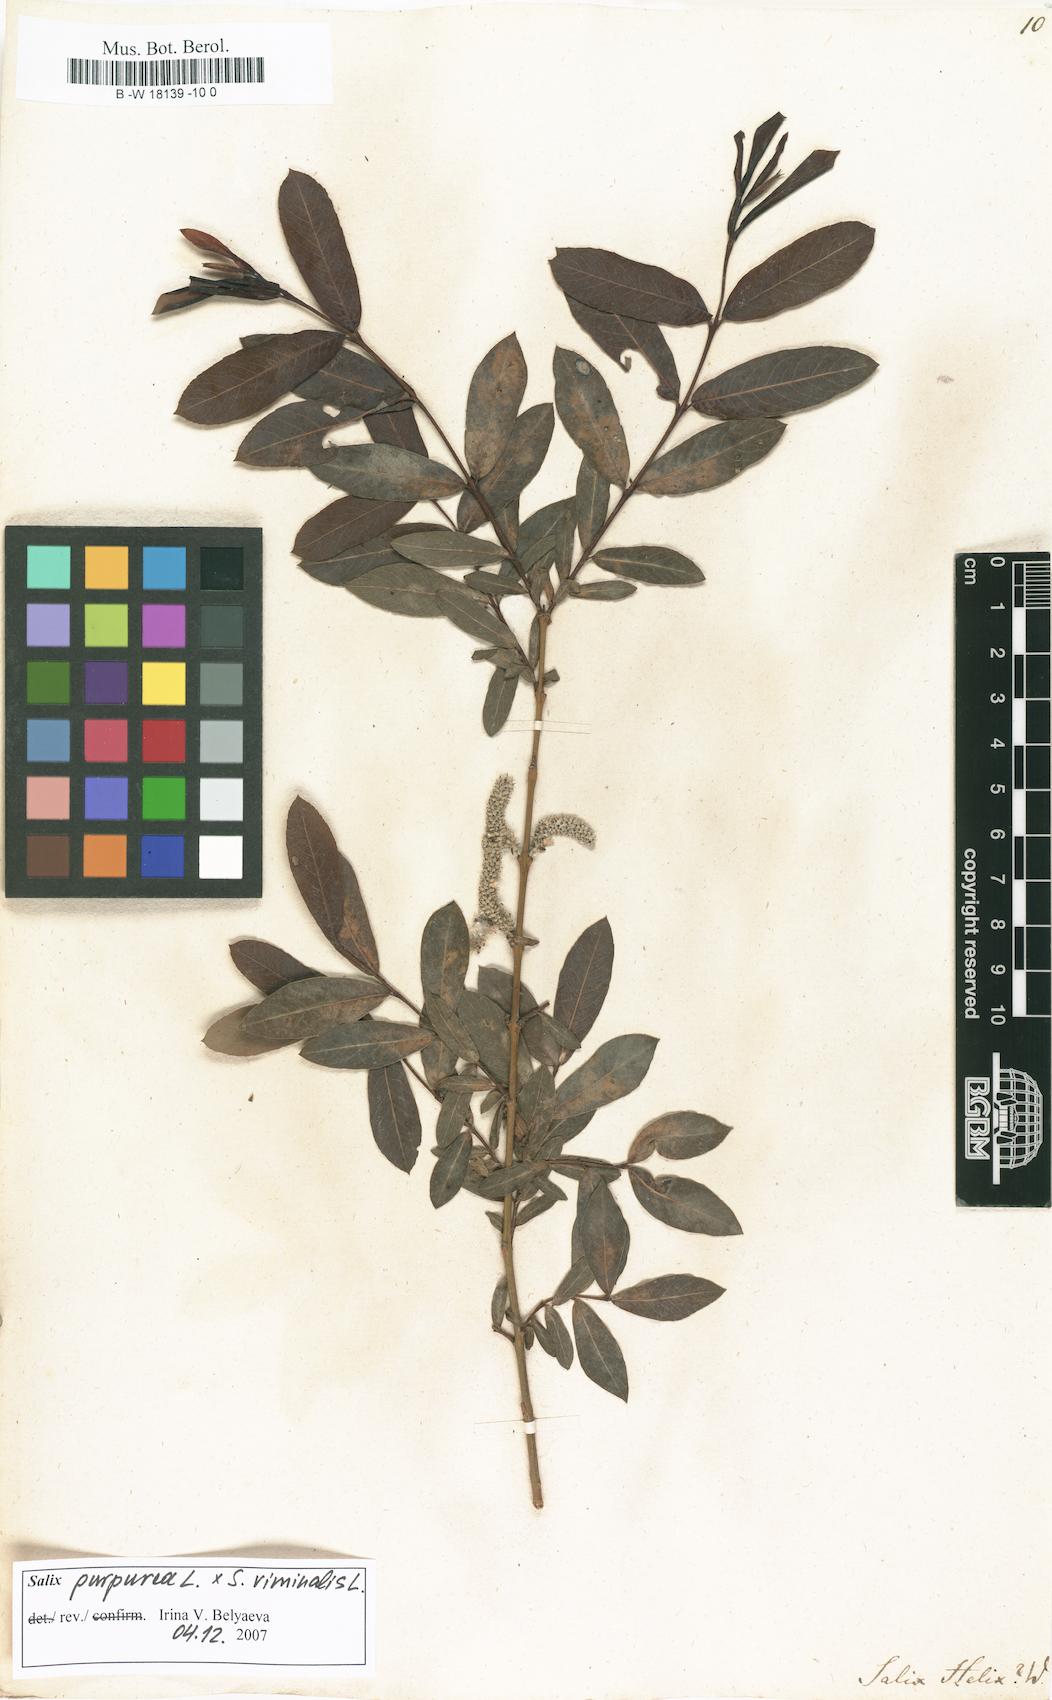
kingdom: Plantae
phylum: Tracheophyta
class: Magnoliopsida
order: Malpighiales
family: Salicaceae
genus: Salix
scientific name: Salix purpurea
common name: Purple willow
